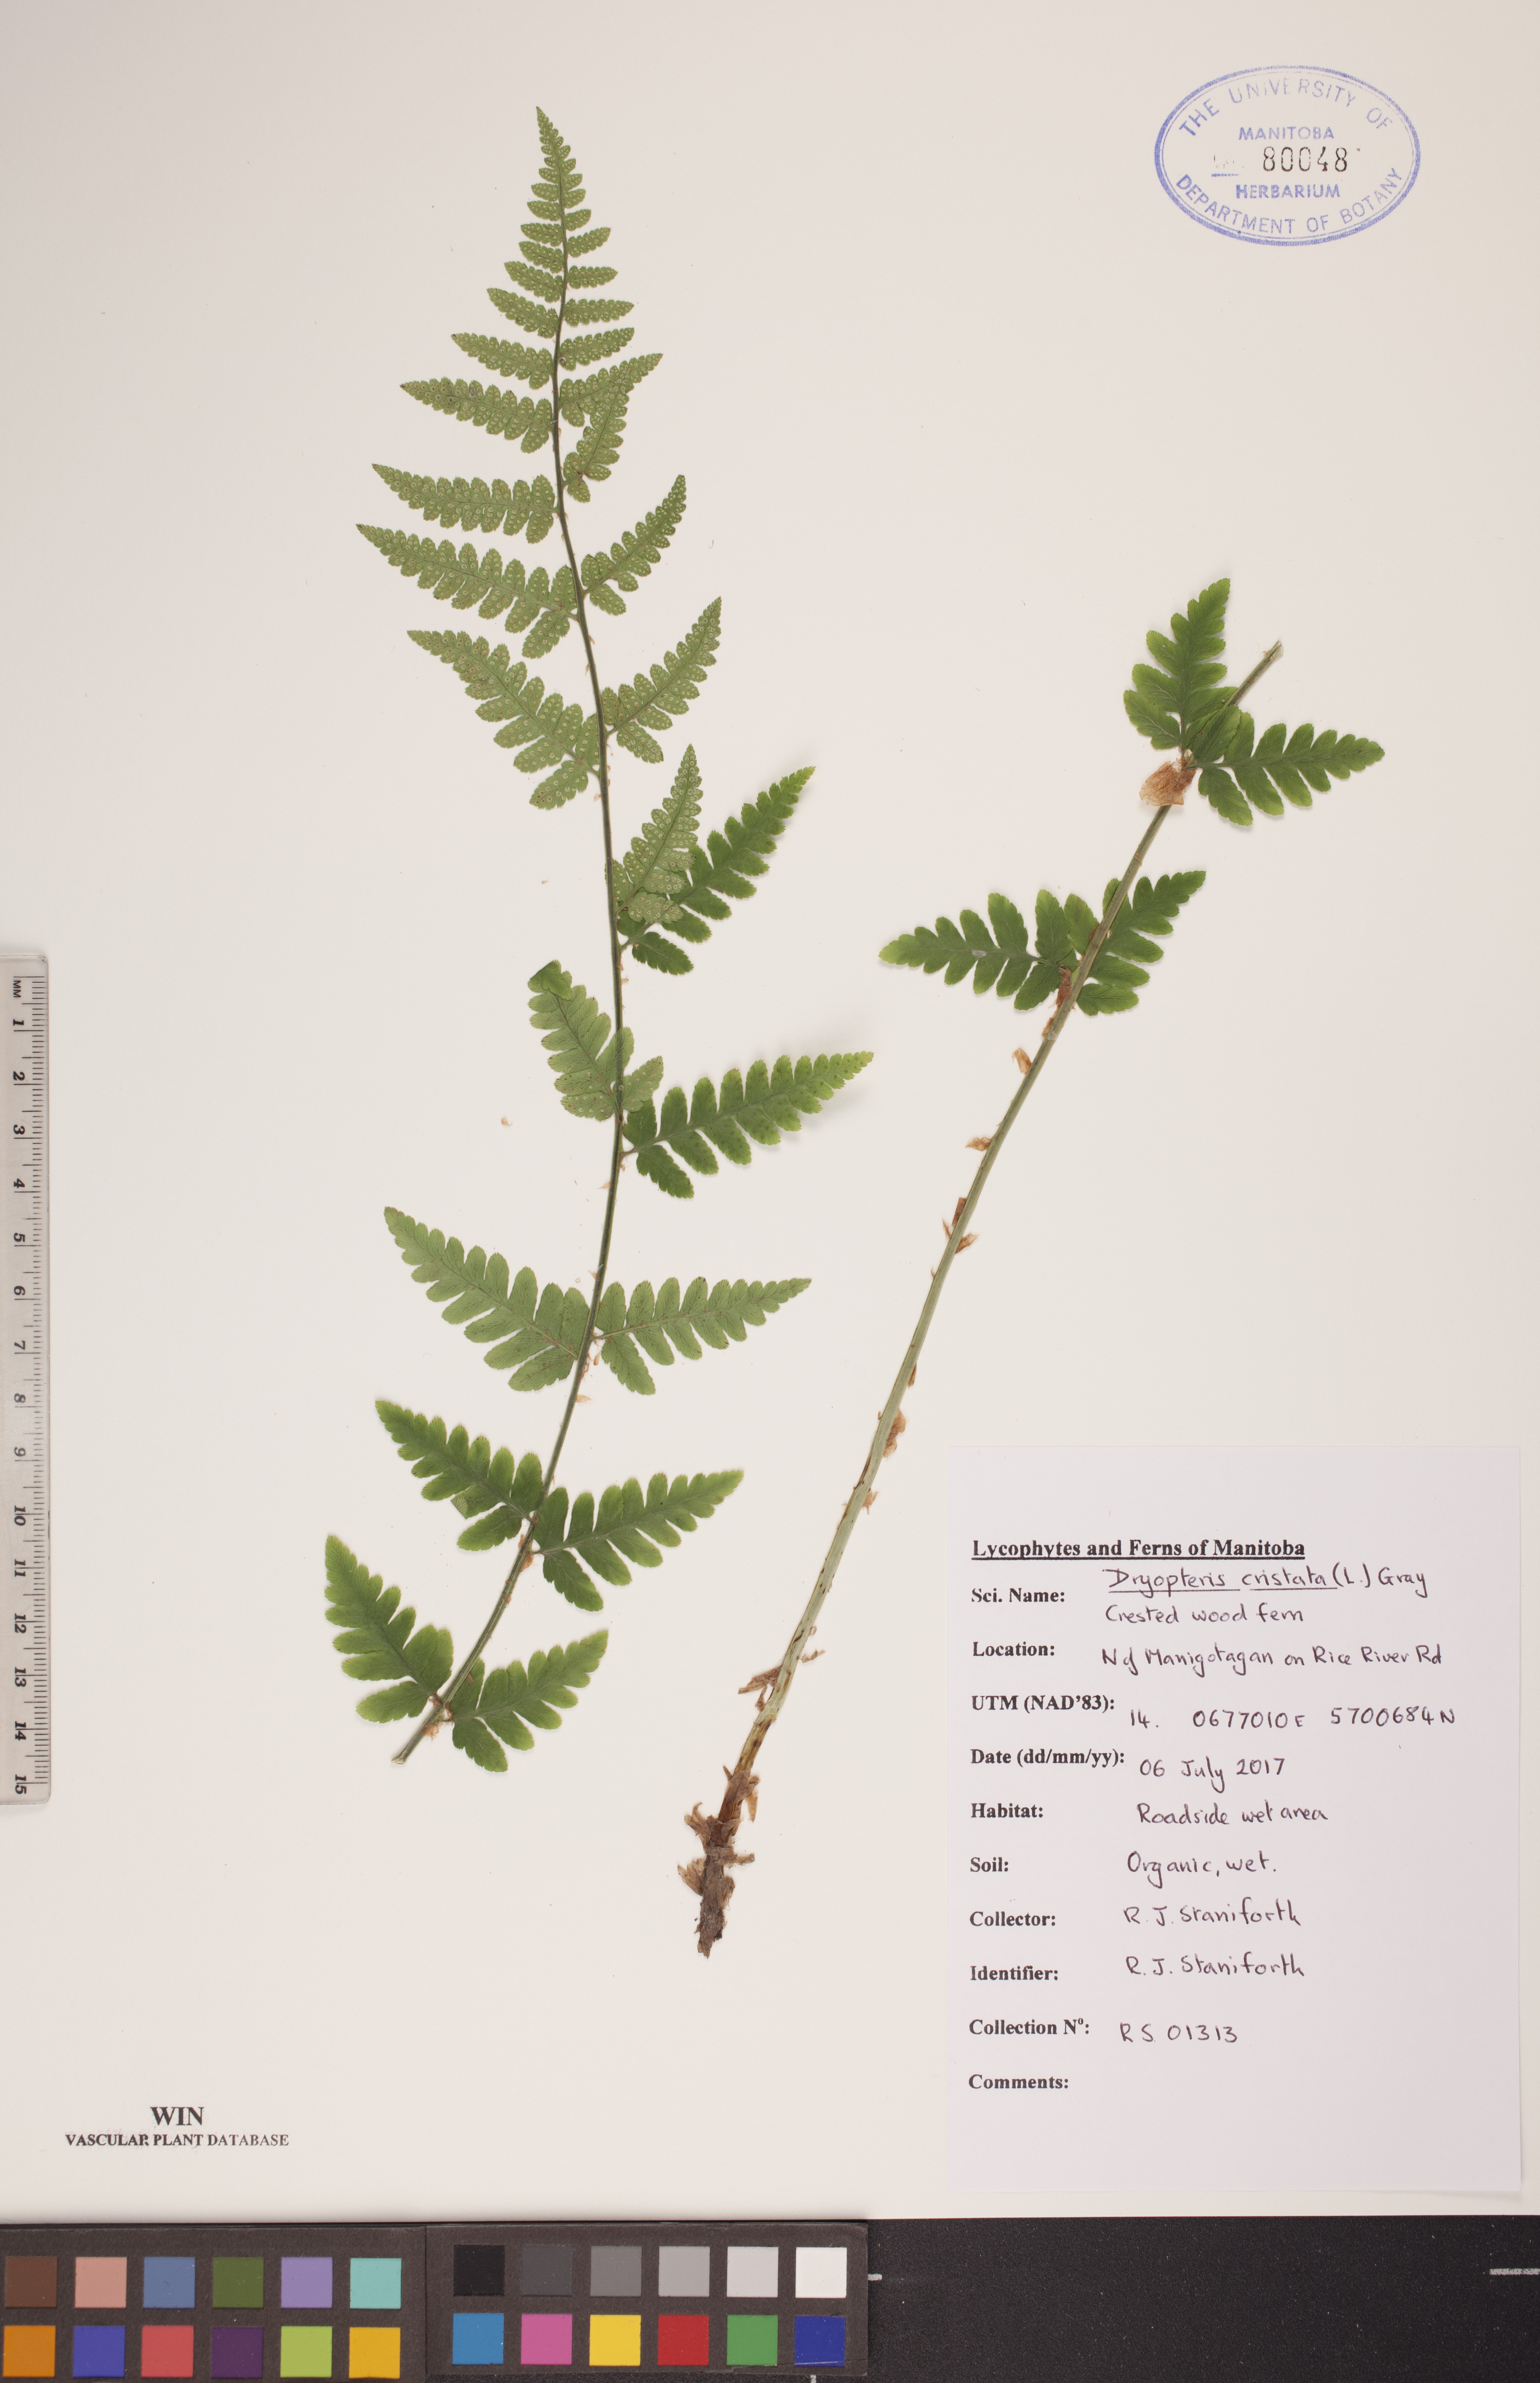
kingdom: Plantae
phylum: Tracheophyta
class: Polypodiopsida
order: Polypodiales
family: Dryopteridaceae
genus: Dryopteris
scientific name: Dryopteris cristata
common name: Crested wood fern
